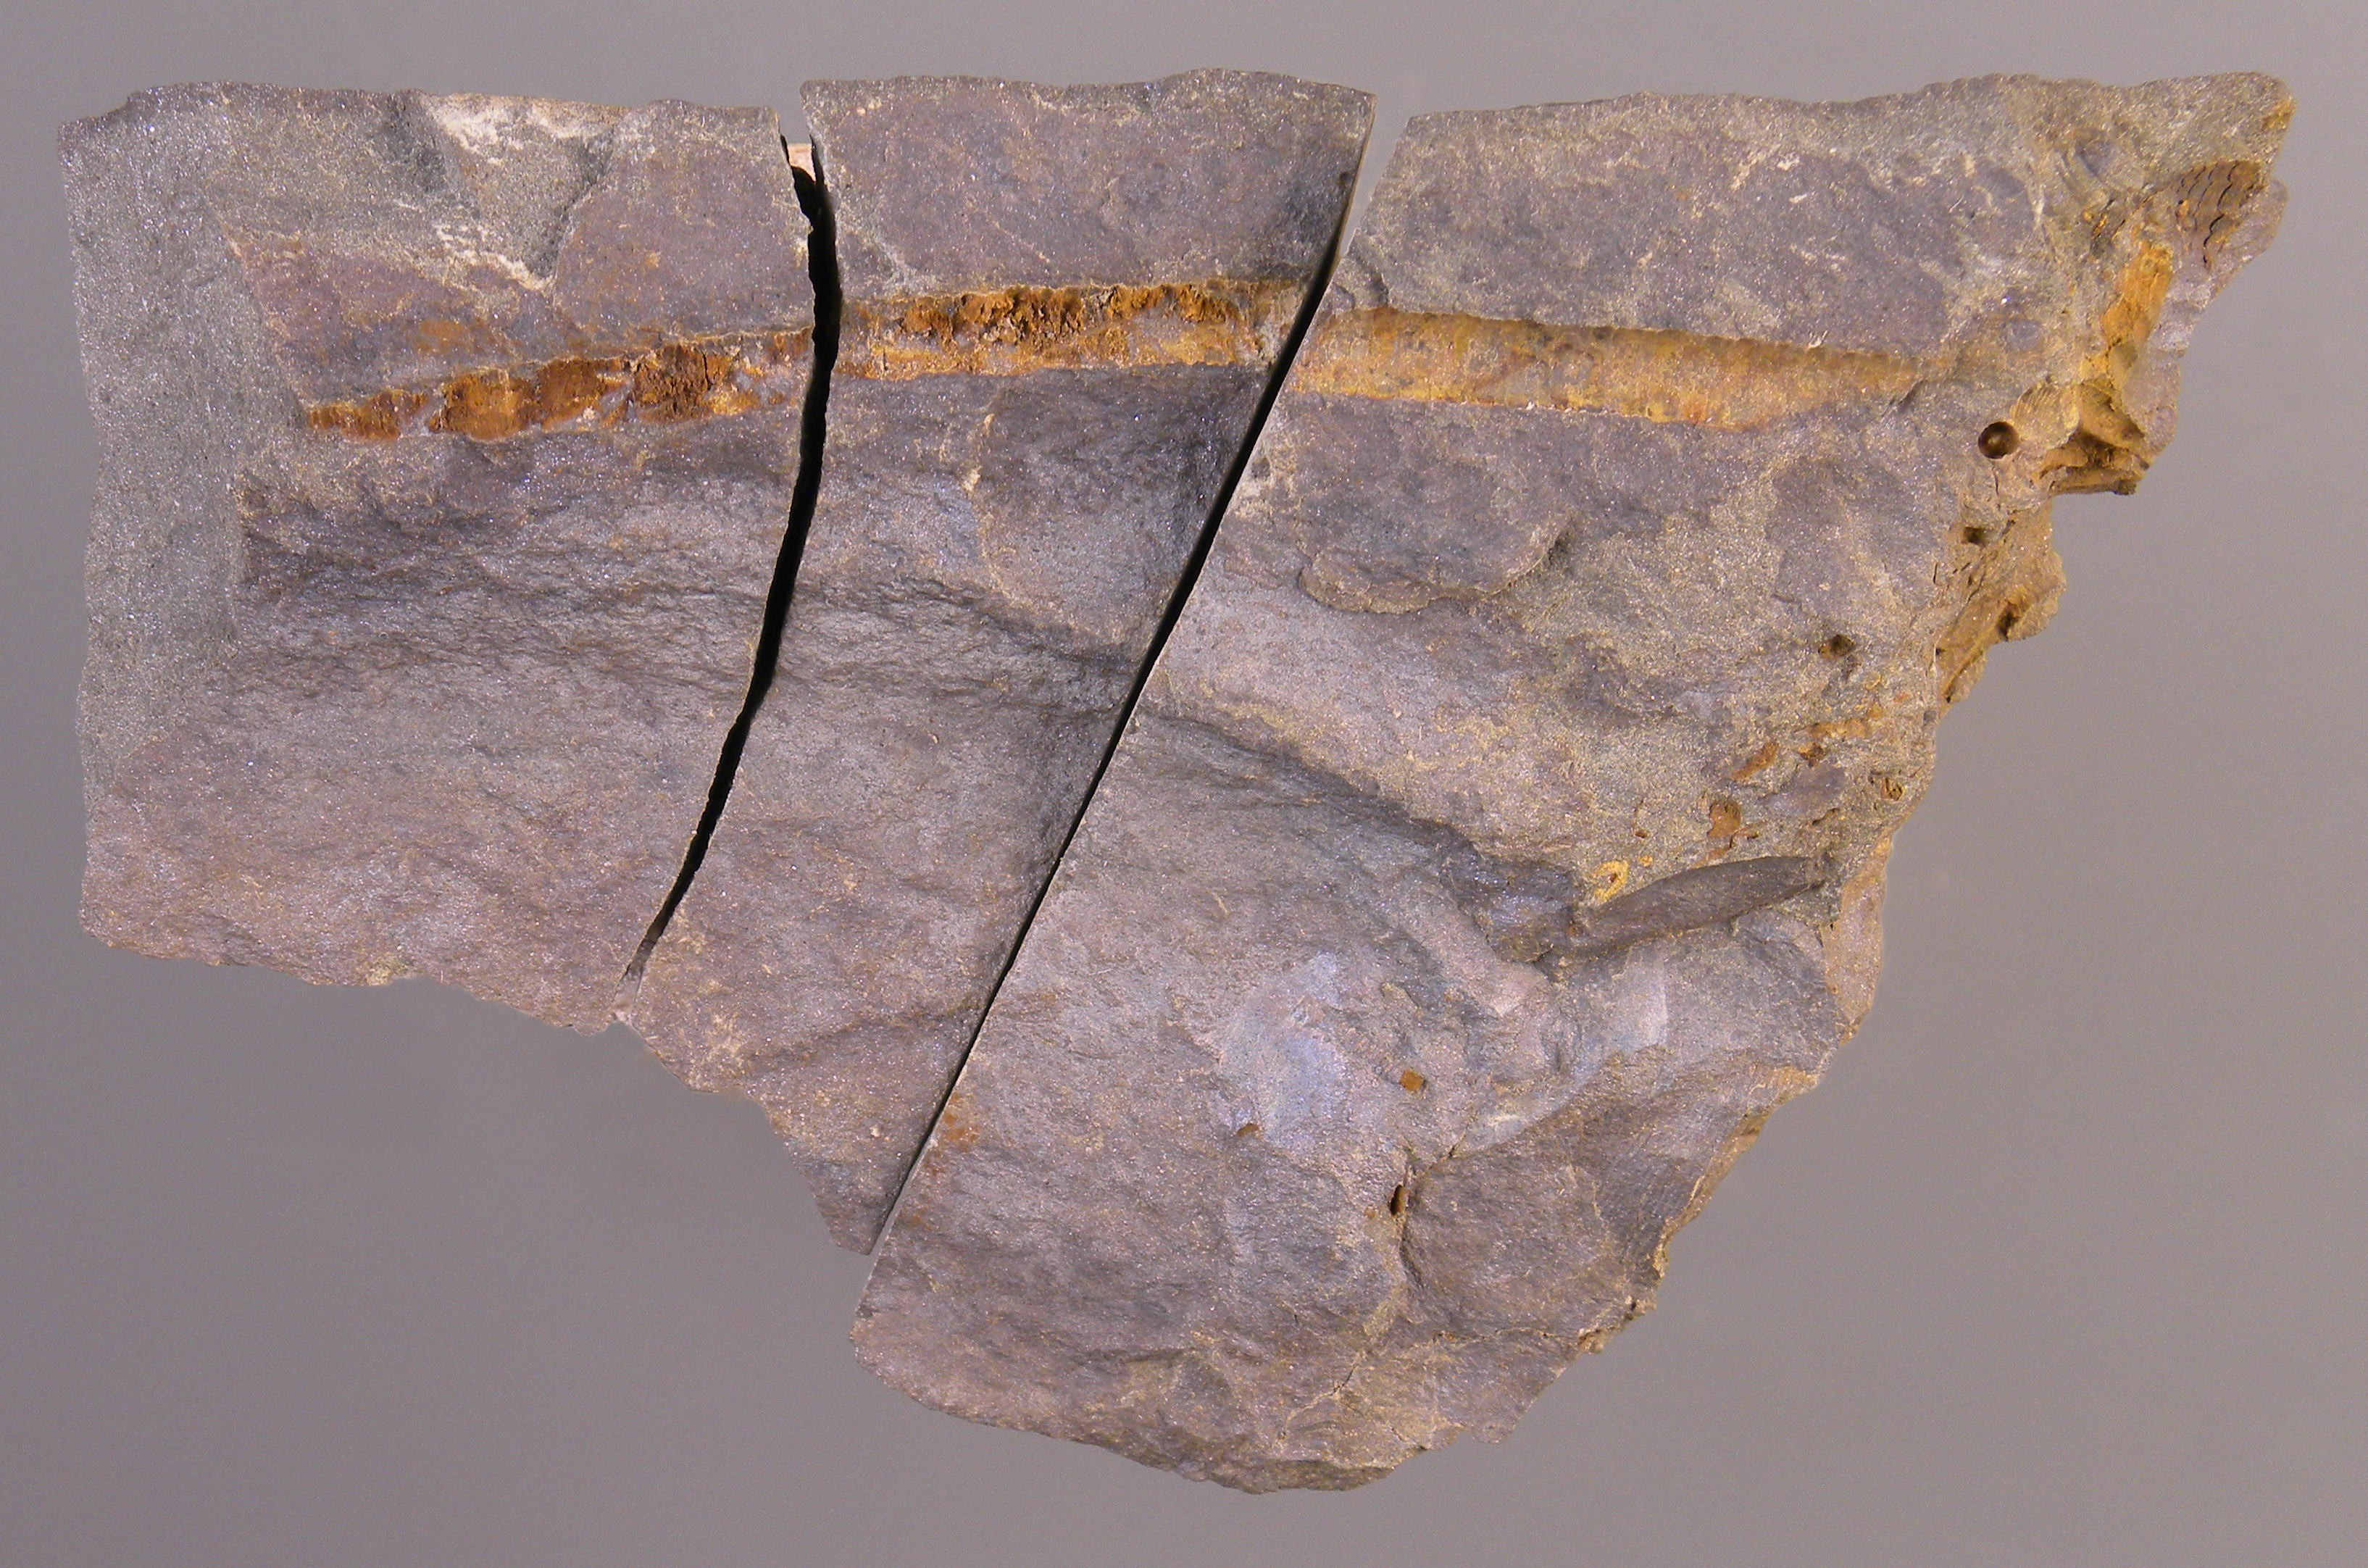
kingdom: Animalia
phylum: Echinodermata
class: Crinoidea
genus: Facetocrinus
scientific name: Facetocrinus
